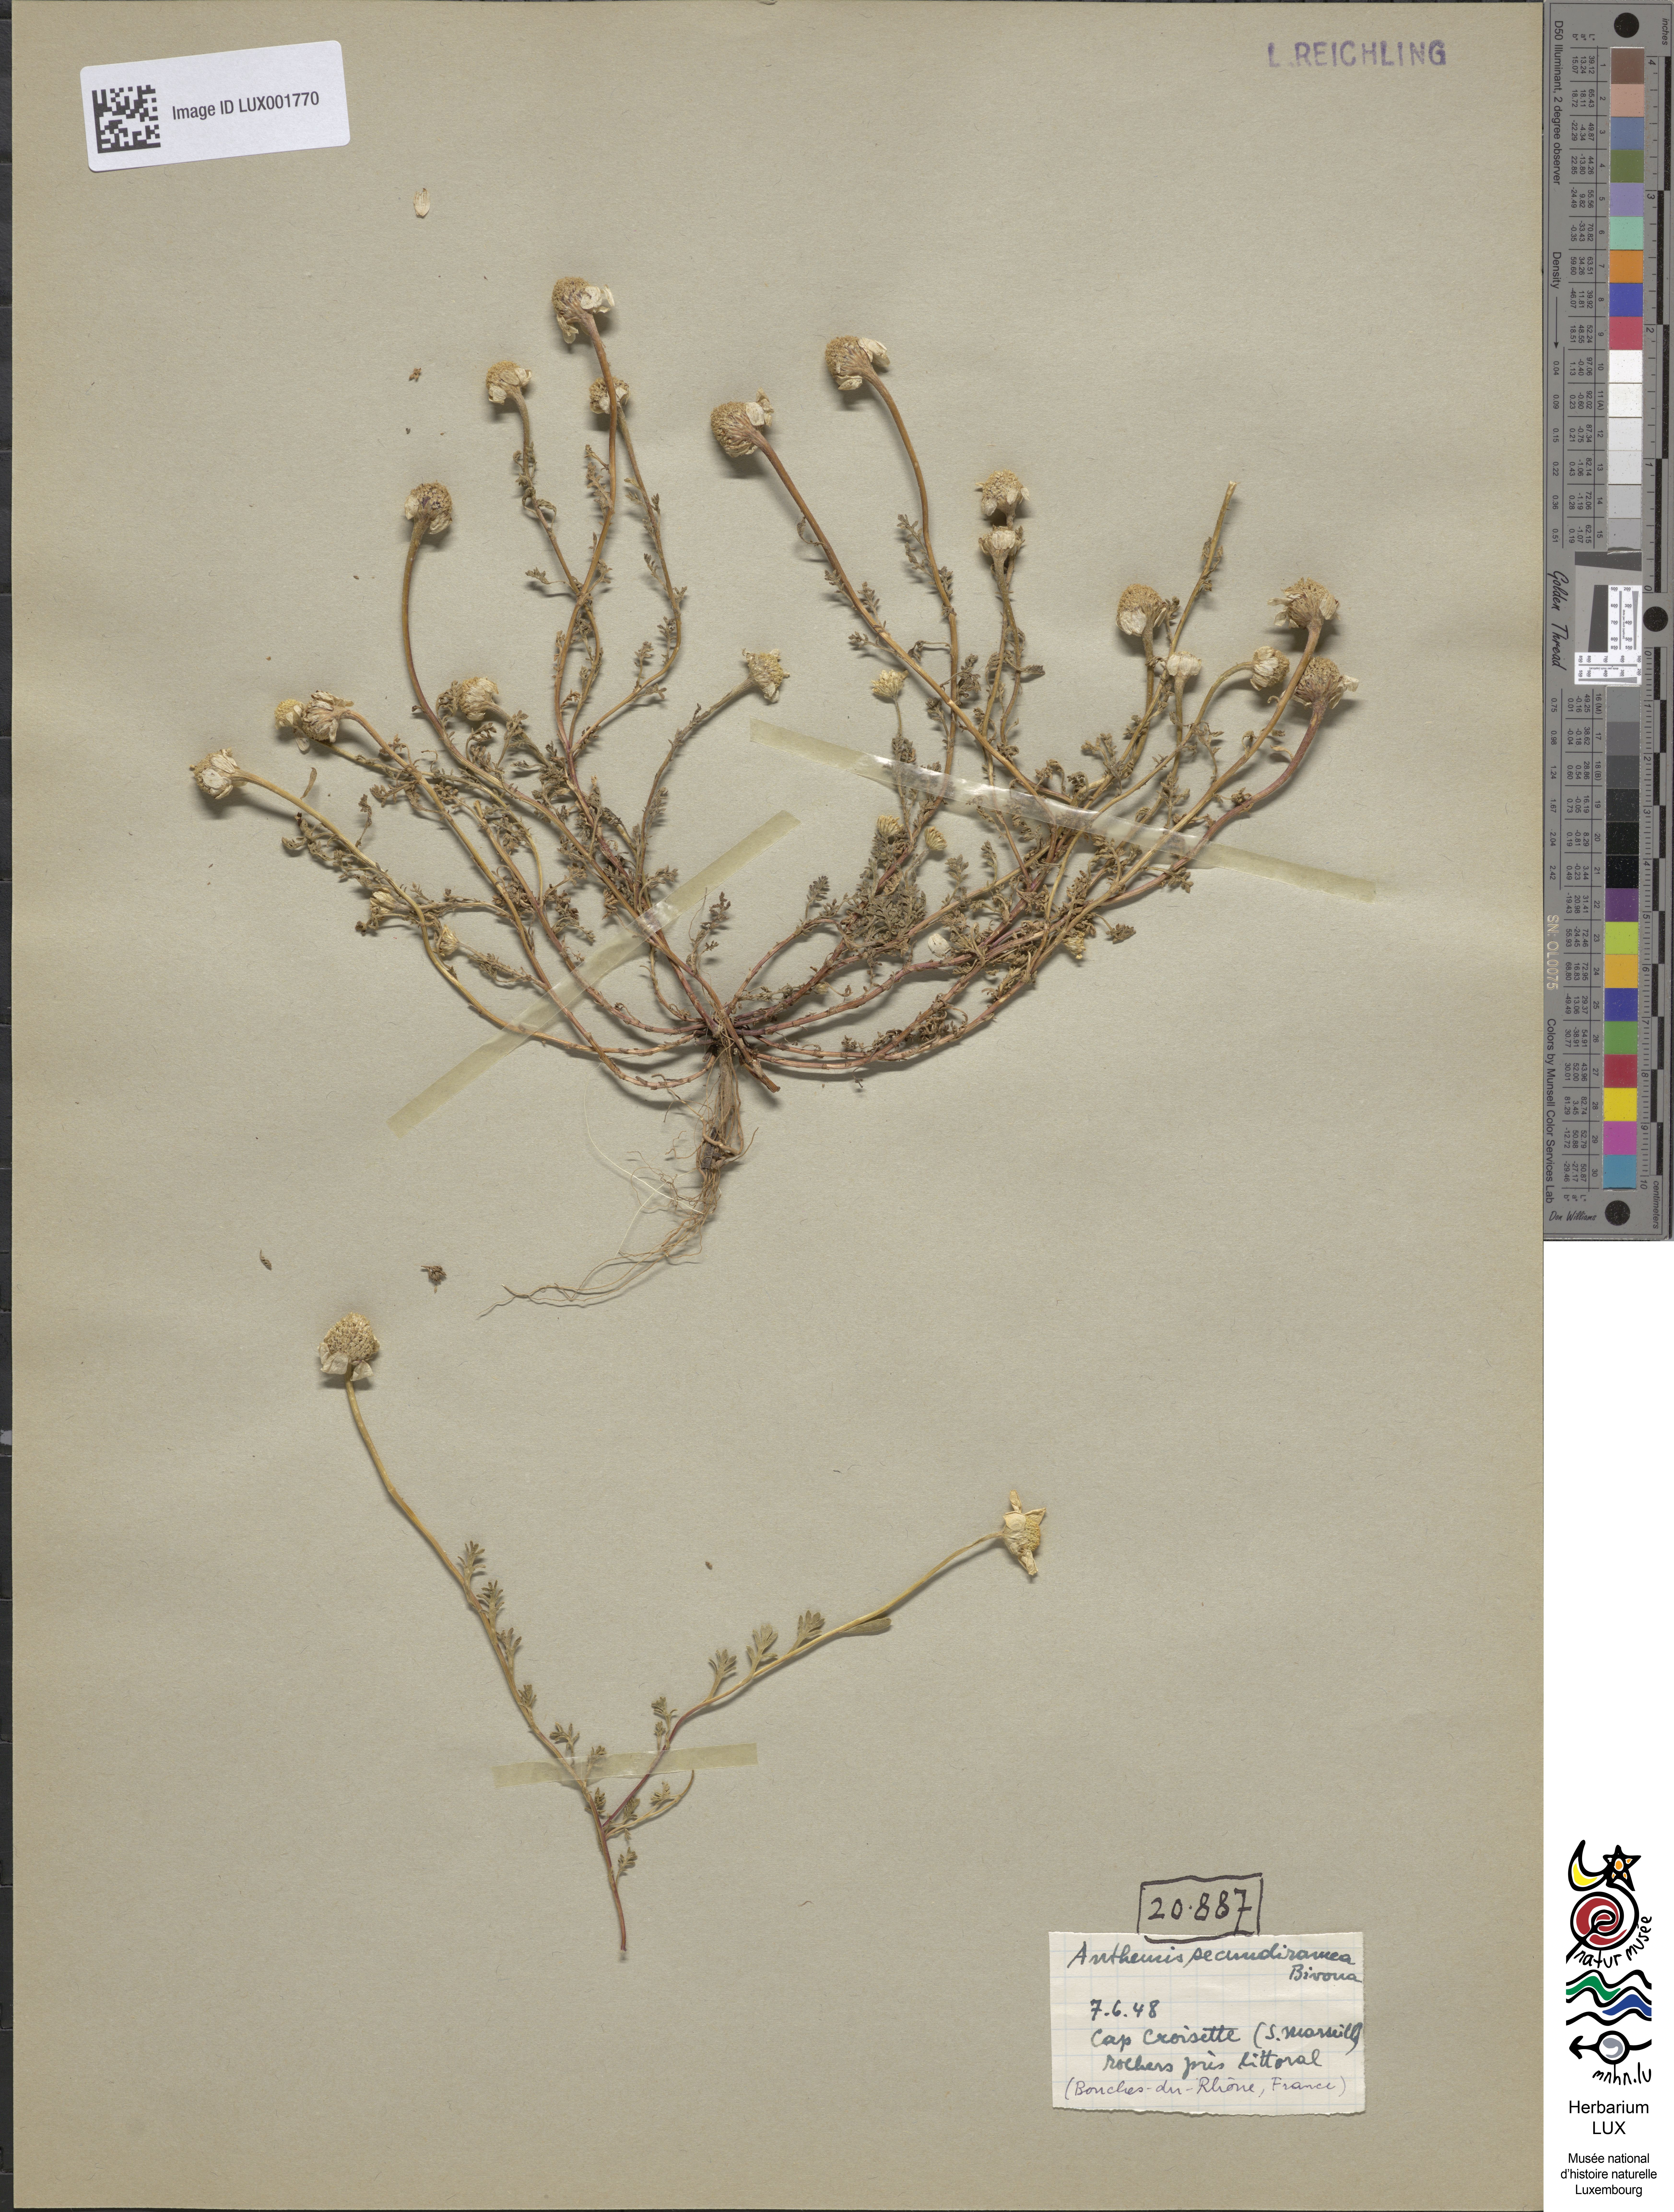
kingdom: Plantae
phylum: Tracheophyta
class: Magnoliopsida
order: Asterales
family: Asteraceae
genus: Anthemis
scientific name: Anthemis secundiramea
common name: Prostrate chamomile
